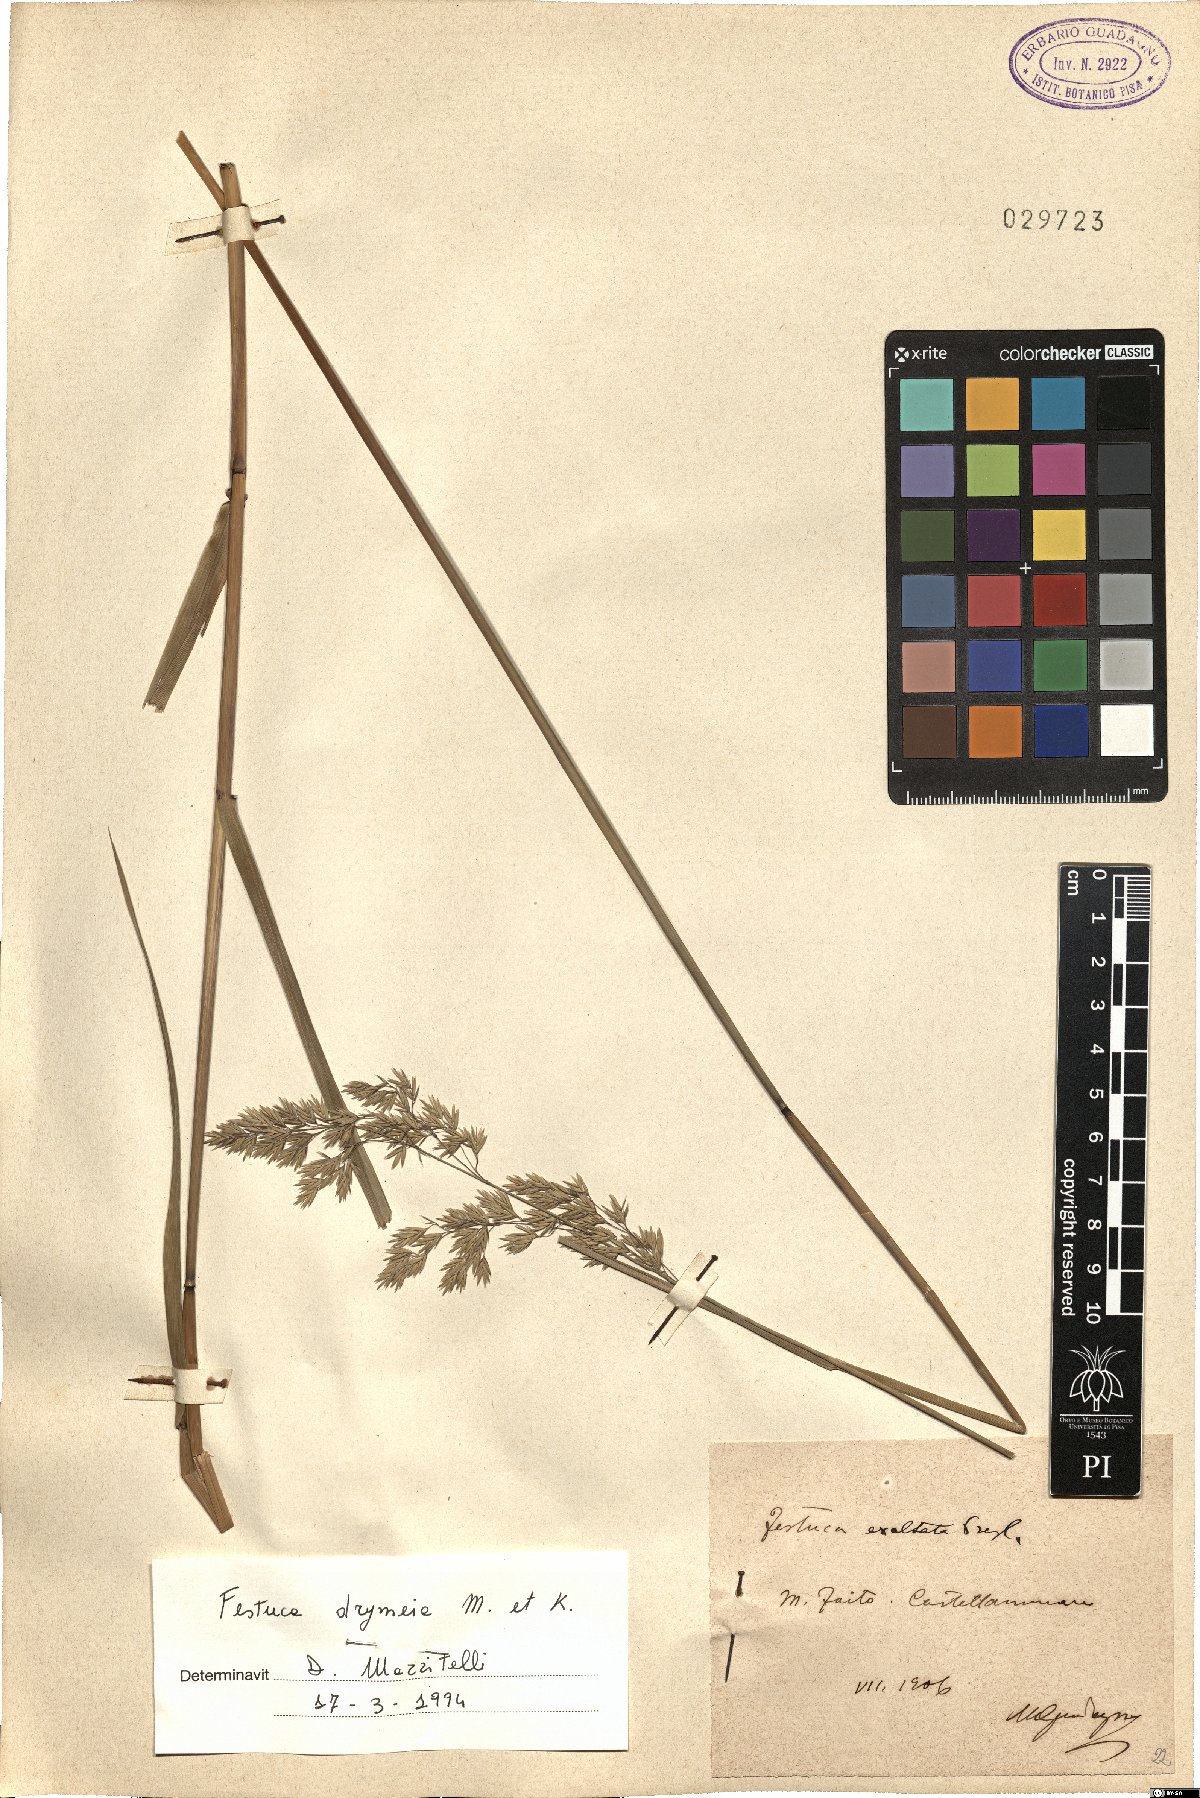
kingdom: Plantae
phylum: Tracheophyta
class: Liliopsida
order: Poales
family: Poaceae
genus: Festuca
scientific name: Festuca drymeja
